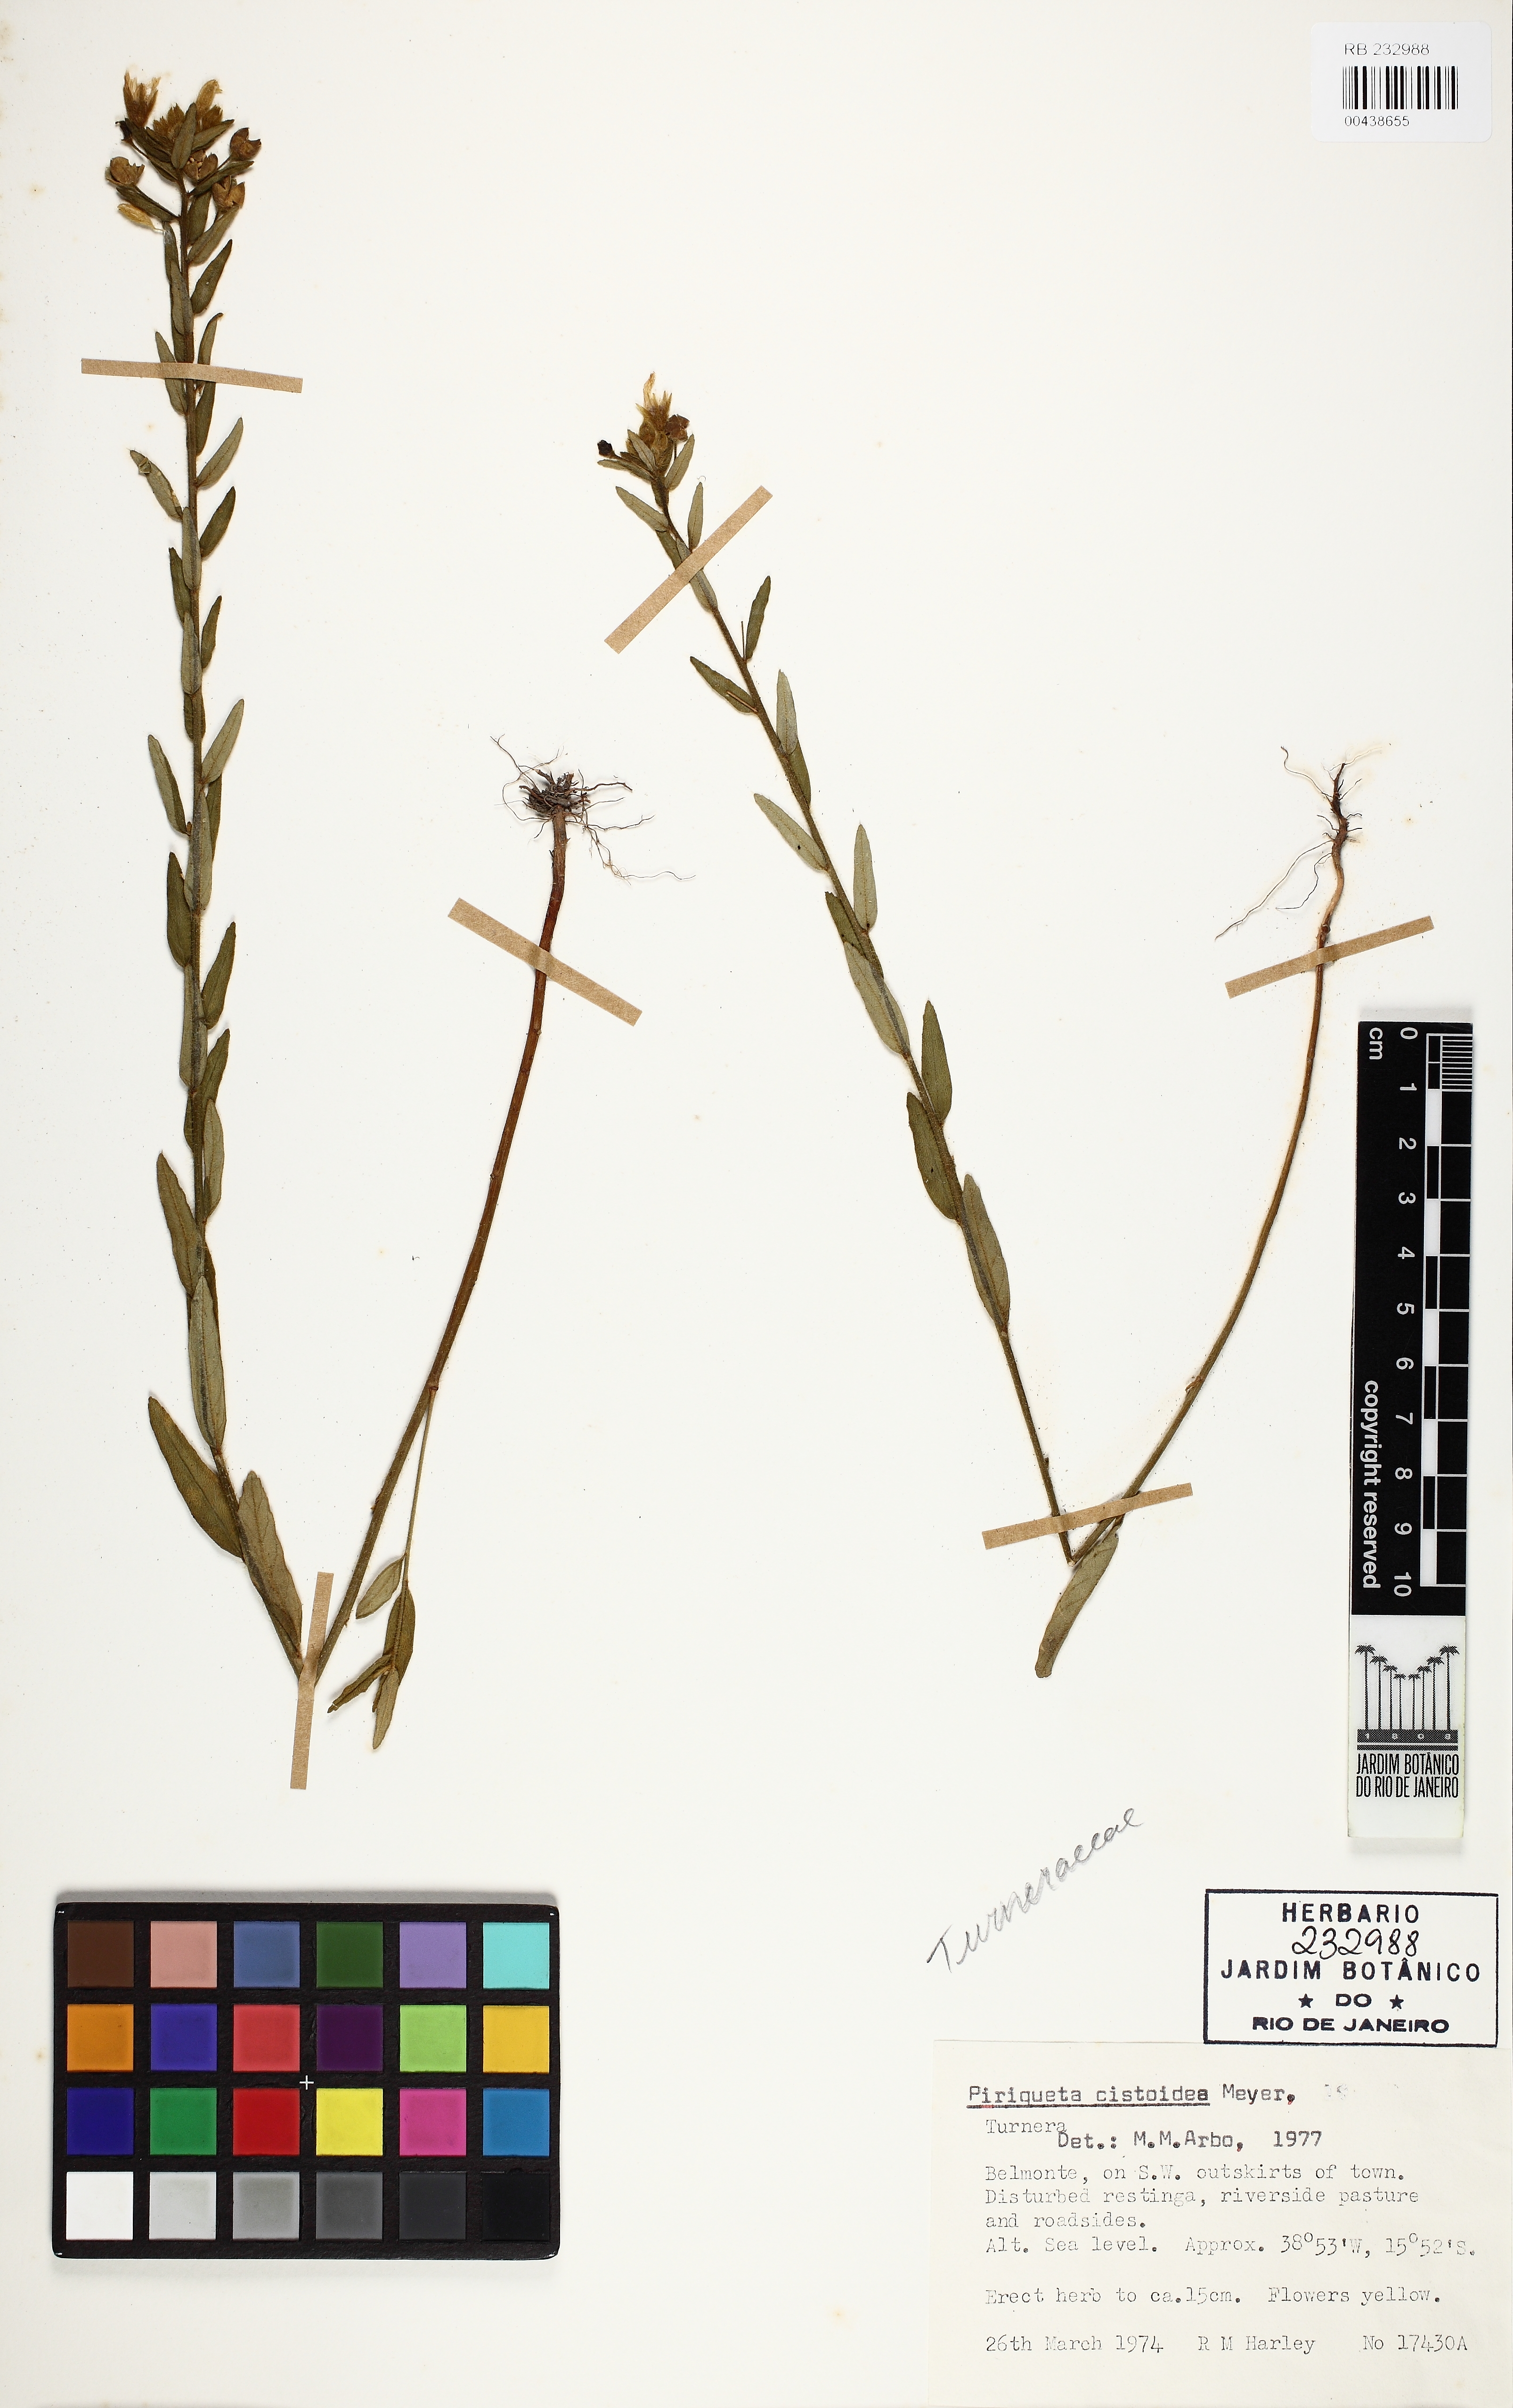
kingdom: Plantae
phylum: Tracheophyta
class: Magnoliopsida
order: Malpighiales
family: Turneraceae
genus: Piriqueta
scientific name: Piriqueta cistoides
